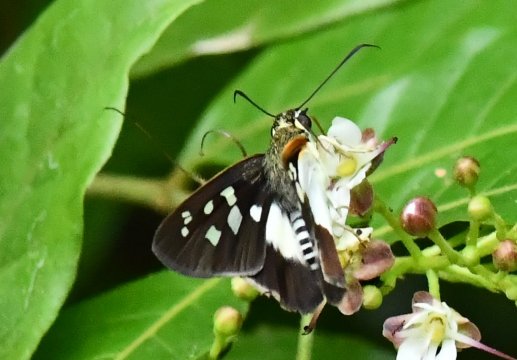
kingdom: Animalia
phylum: Arthropoda
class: Insecta
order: Lepidoptera
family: Hesperiidae
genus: Drephalys
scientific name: Drephalys alcmon
